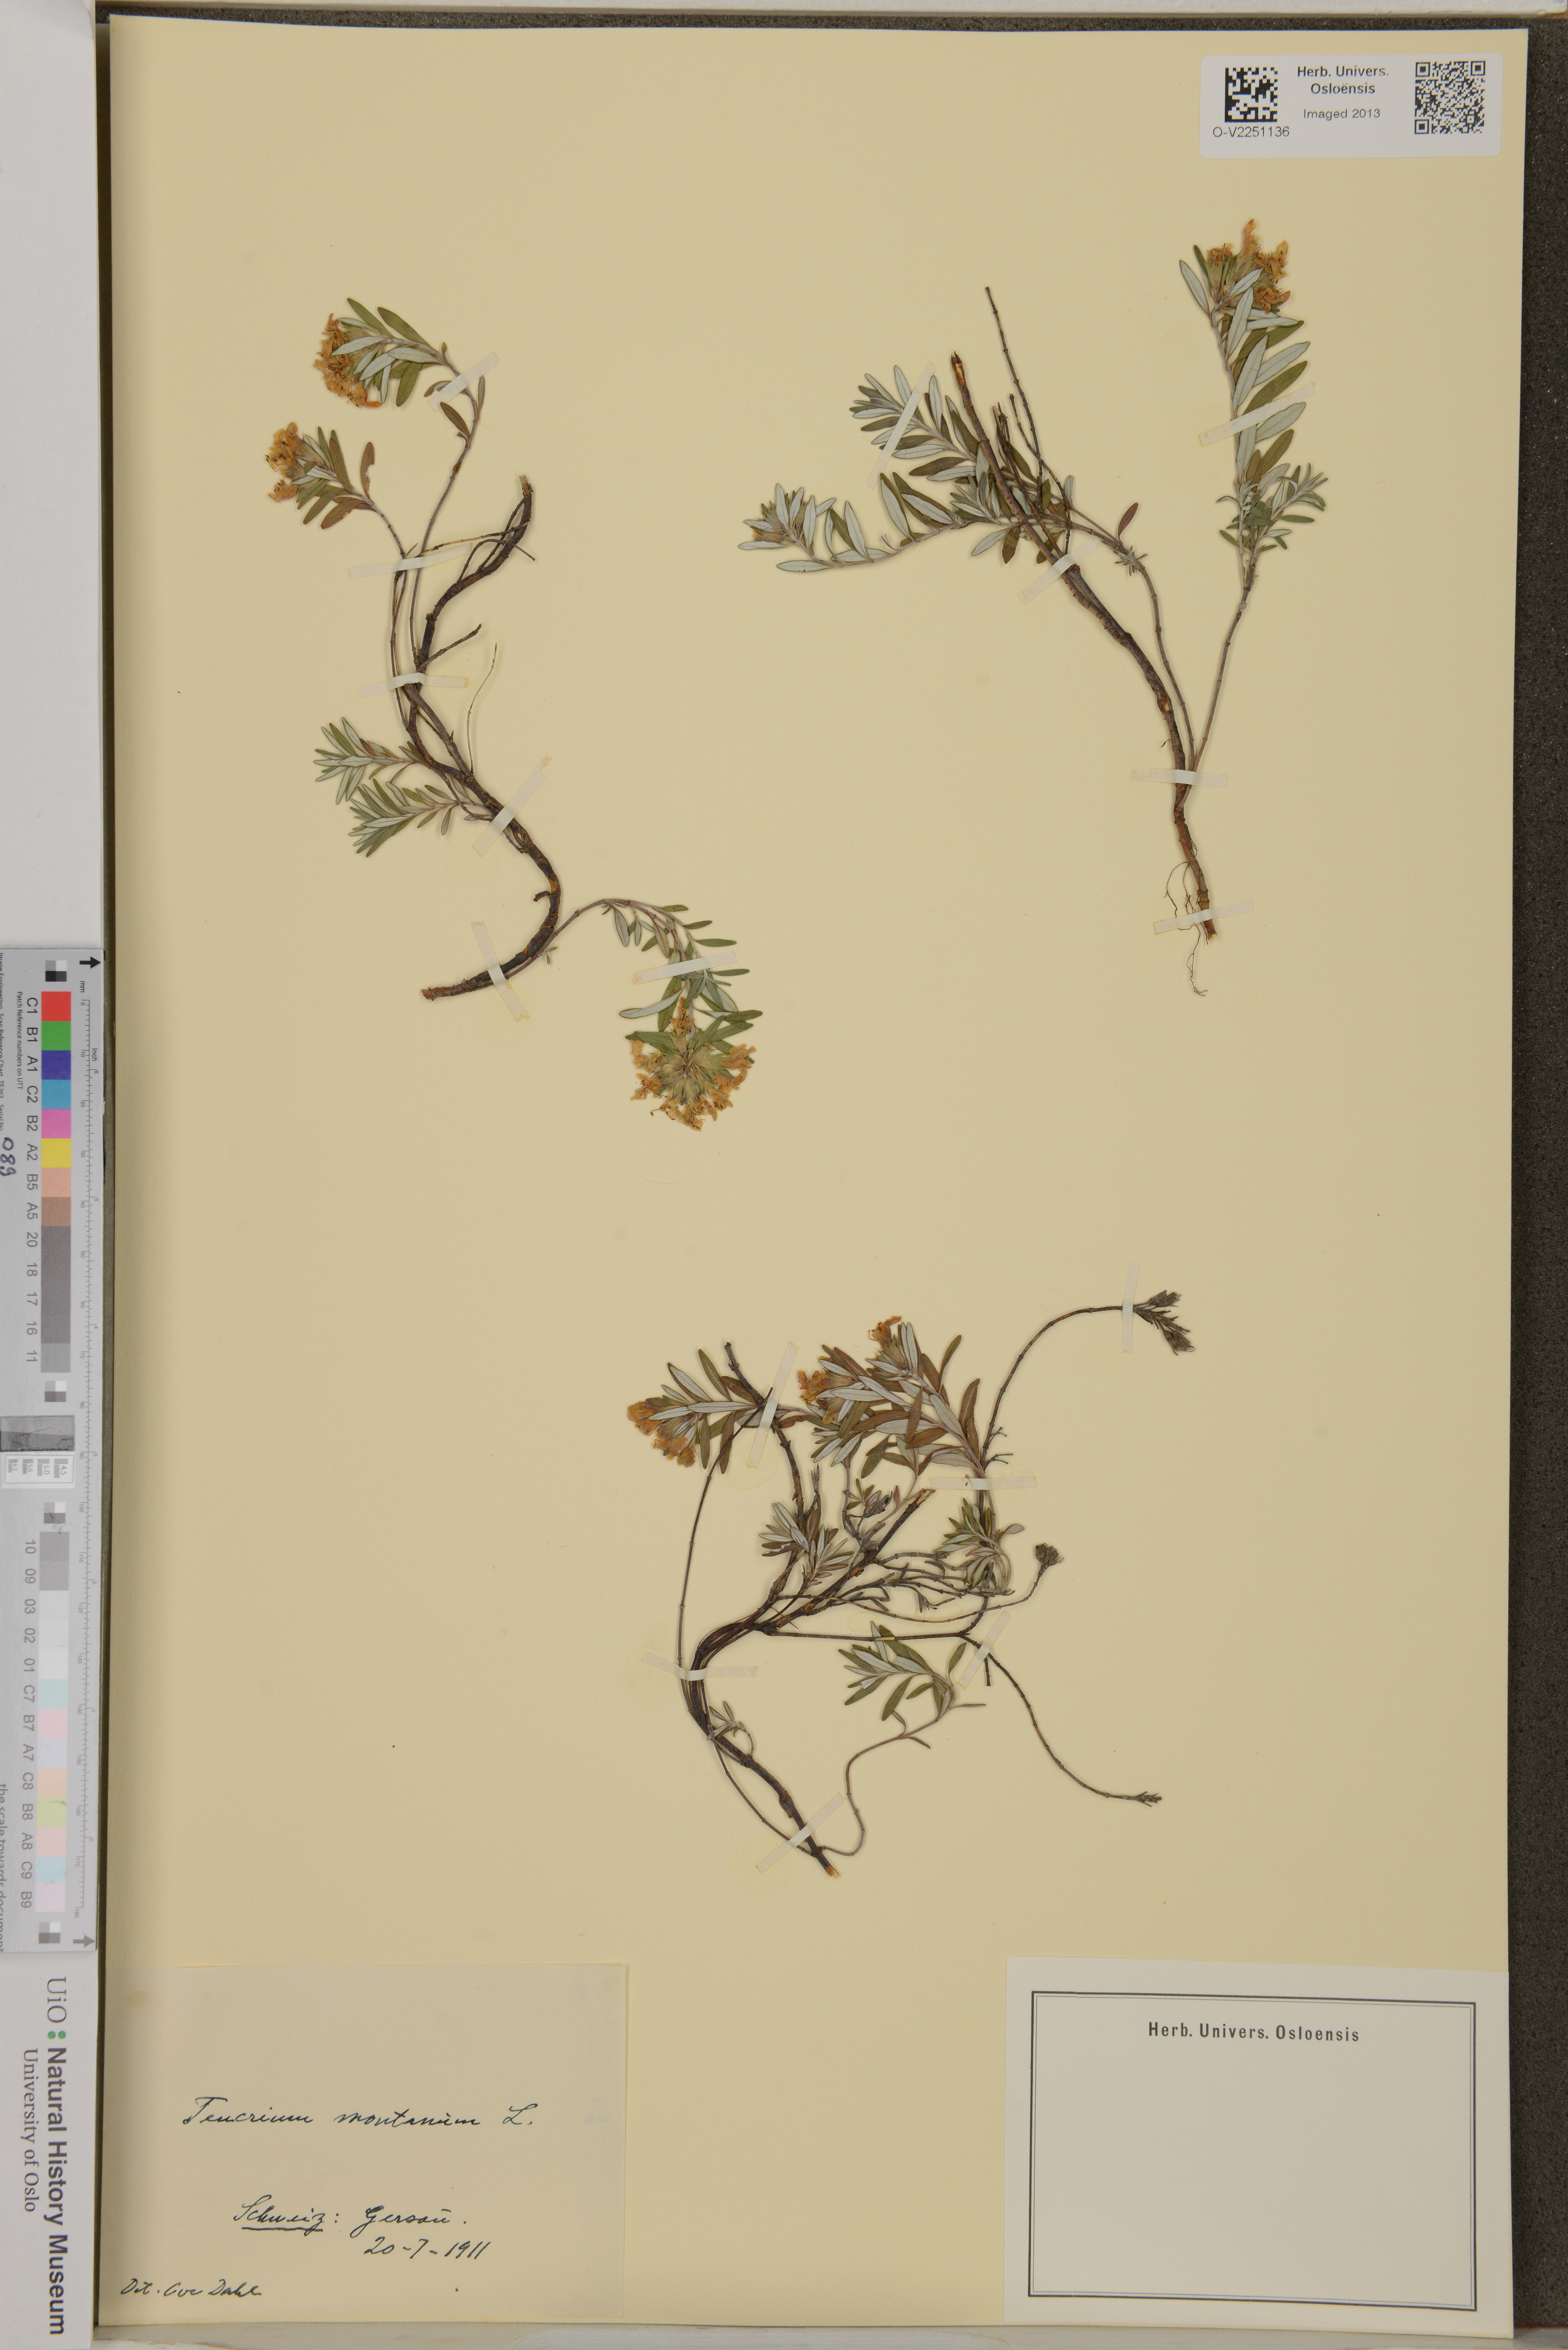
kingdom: Plantae
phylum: Tracheophyta
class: Magnoliopsida
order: Lamiales
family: Lamiaceae
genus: Teucrium
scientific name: Teucrium montanum
